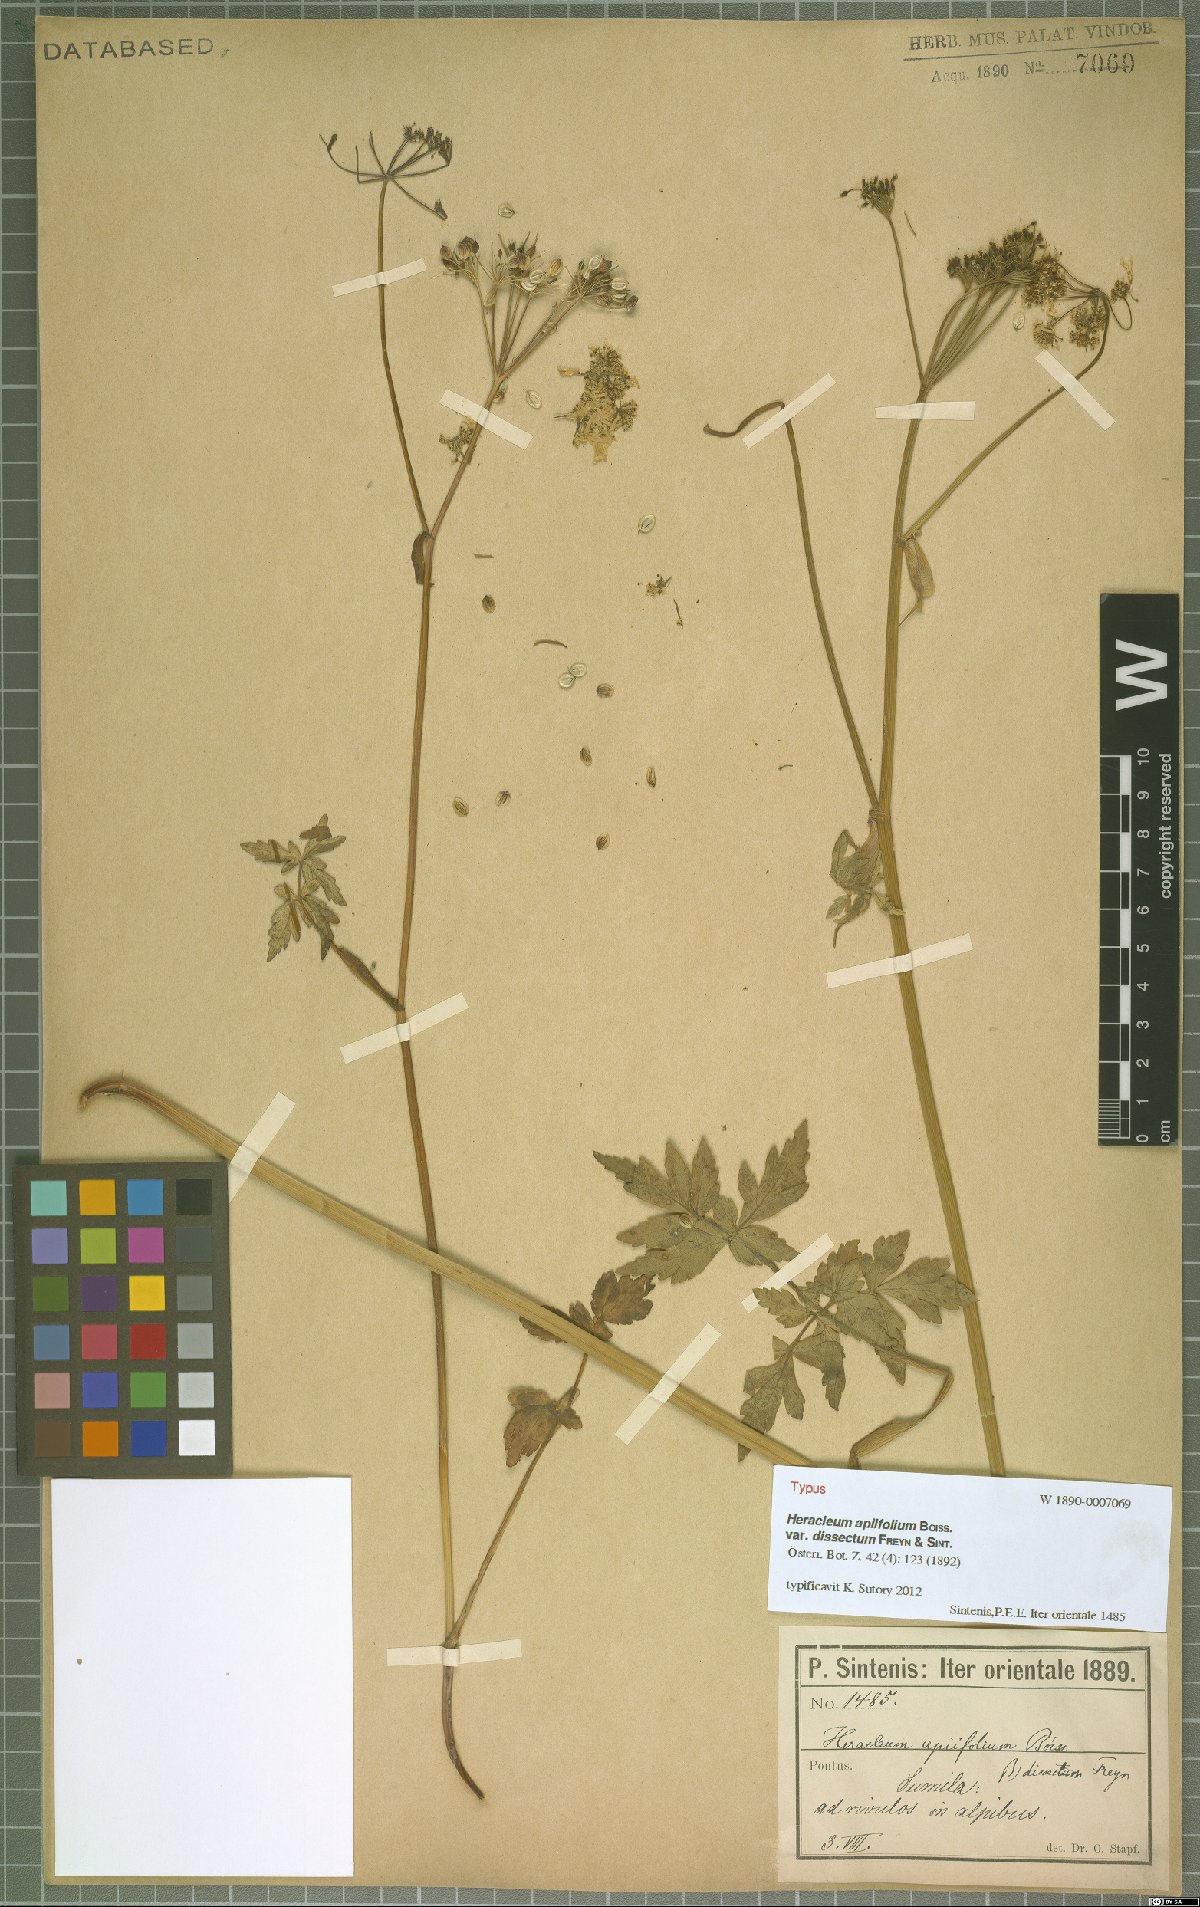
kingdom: Plantae
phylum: Tracheophyta
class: Magnoliopsida
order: Apiales
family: Apiaceae
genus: Heracleum
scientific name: Heracleum apiifolium
